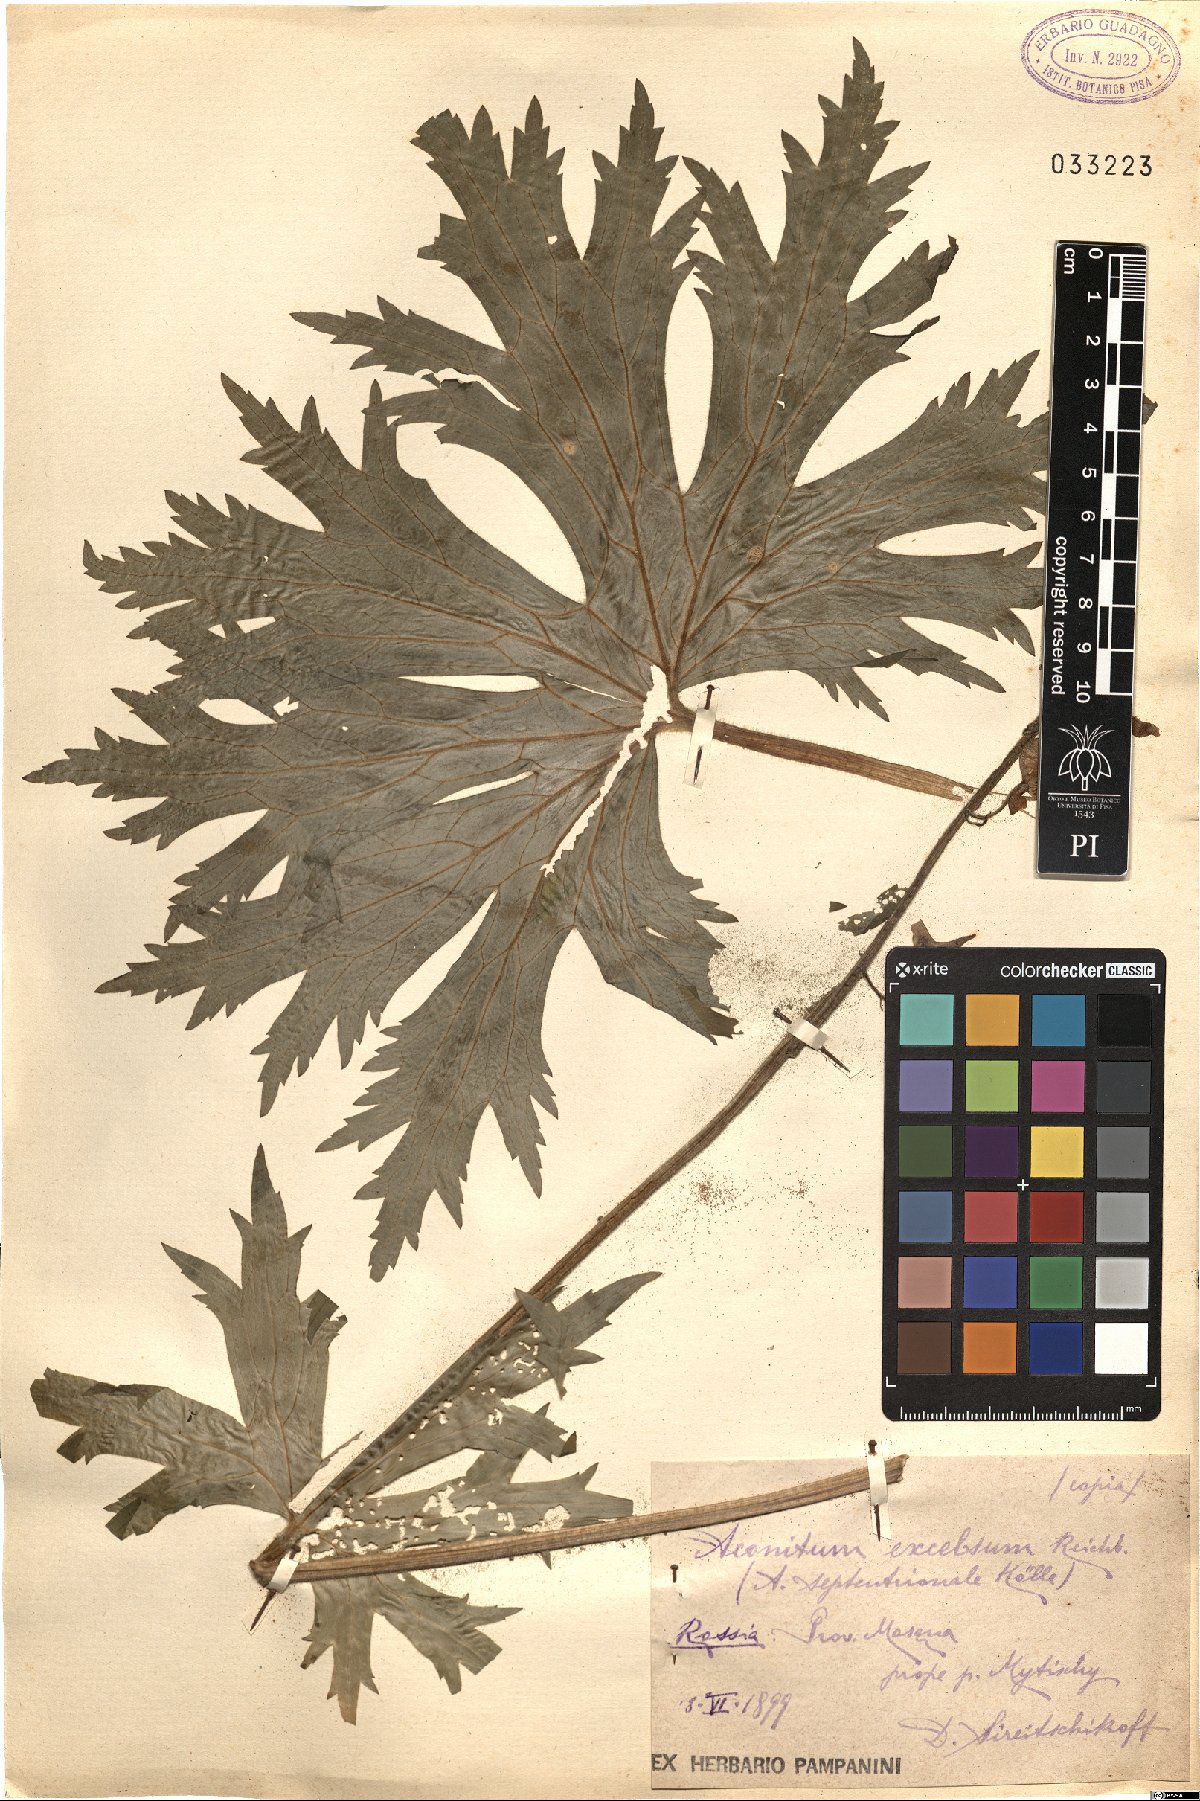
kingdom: Plantae
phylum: Tracheophyta
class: Magnoliopsida
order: Ranunculales
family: Ranunculaceae
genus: Aconitum
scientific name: Aconitum septentrionale
